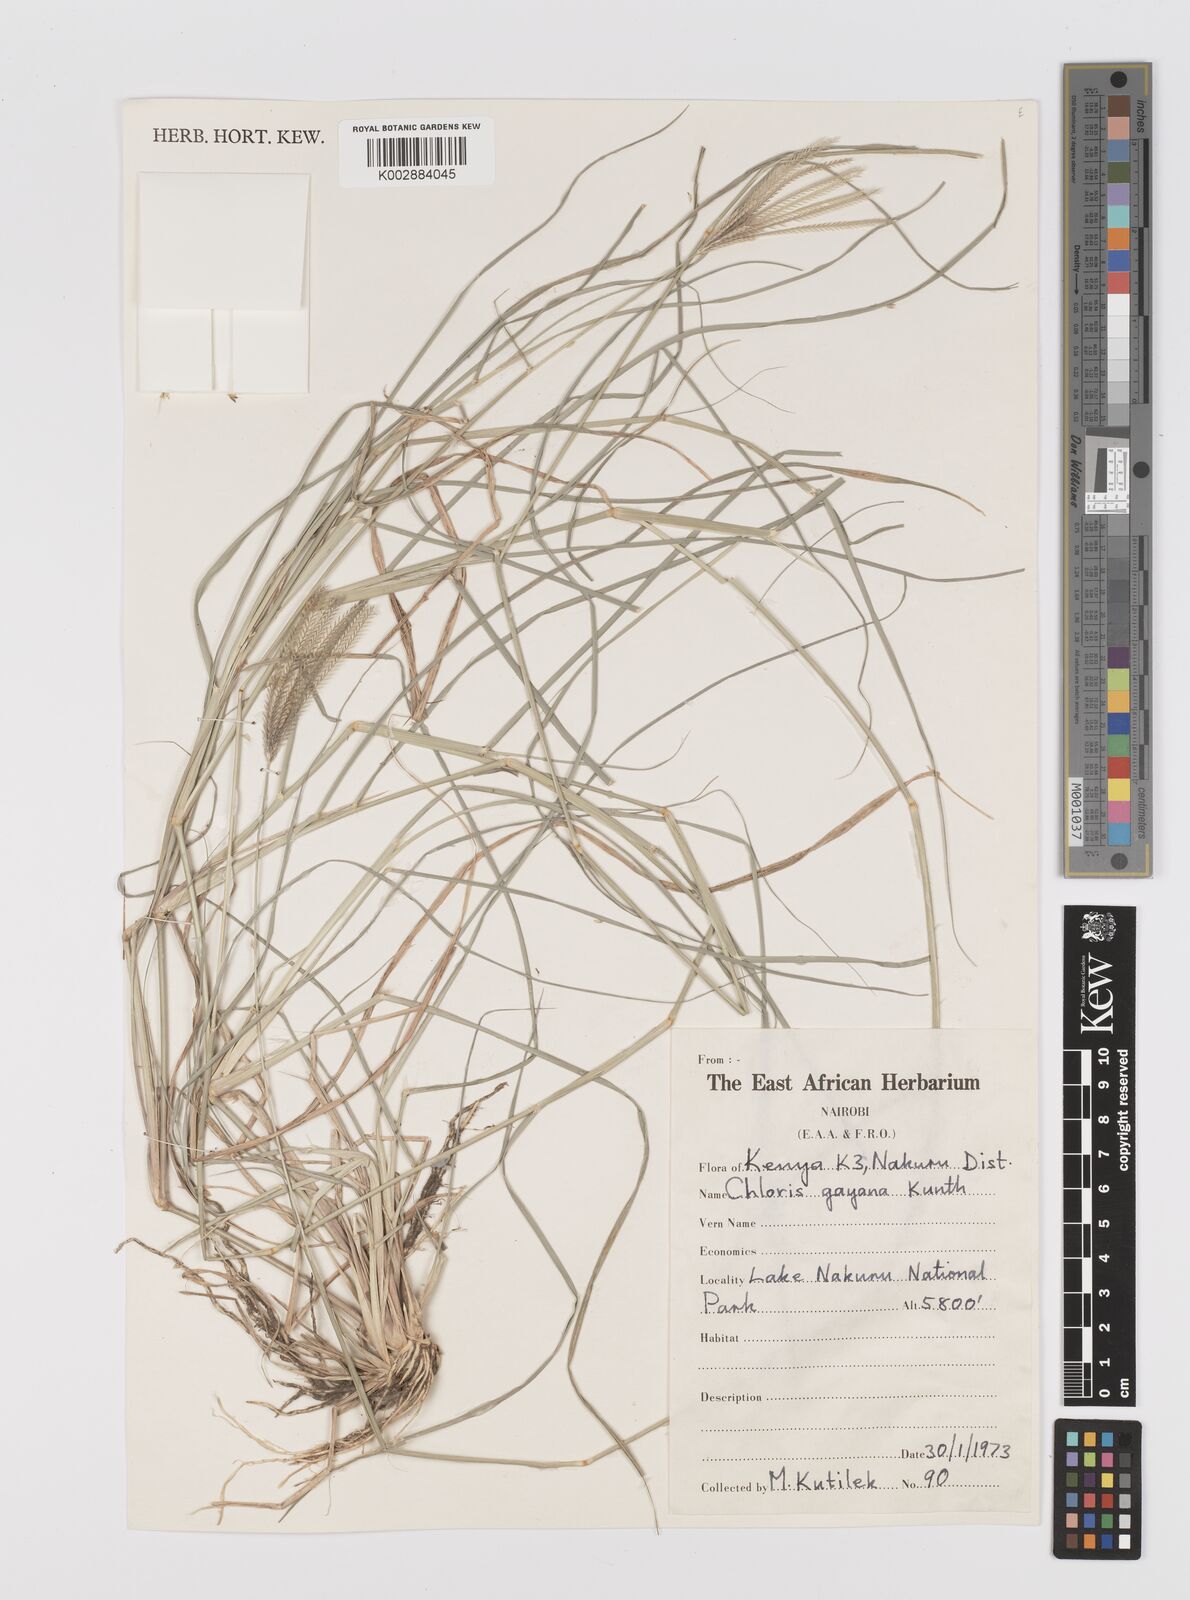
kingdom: Plantae
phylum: Tracheophyta
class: Liliopsida
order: Poales
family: Poaceae
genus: Chloris
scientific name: Chloris gayana
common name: Rhodes grass
